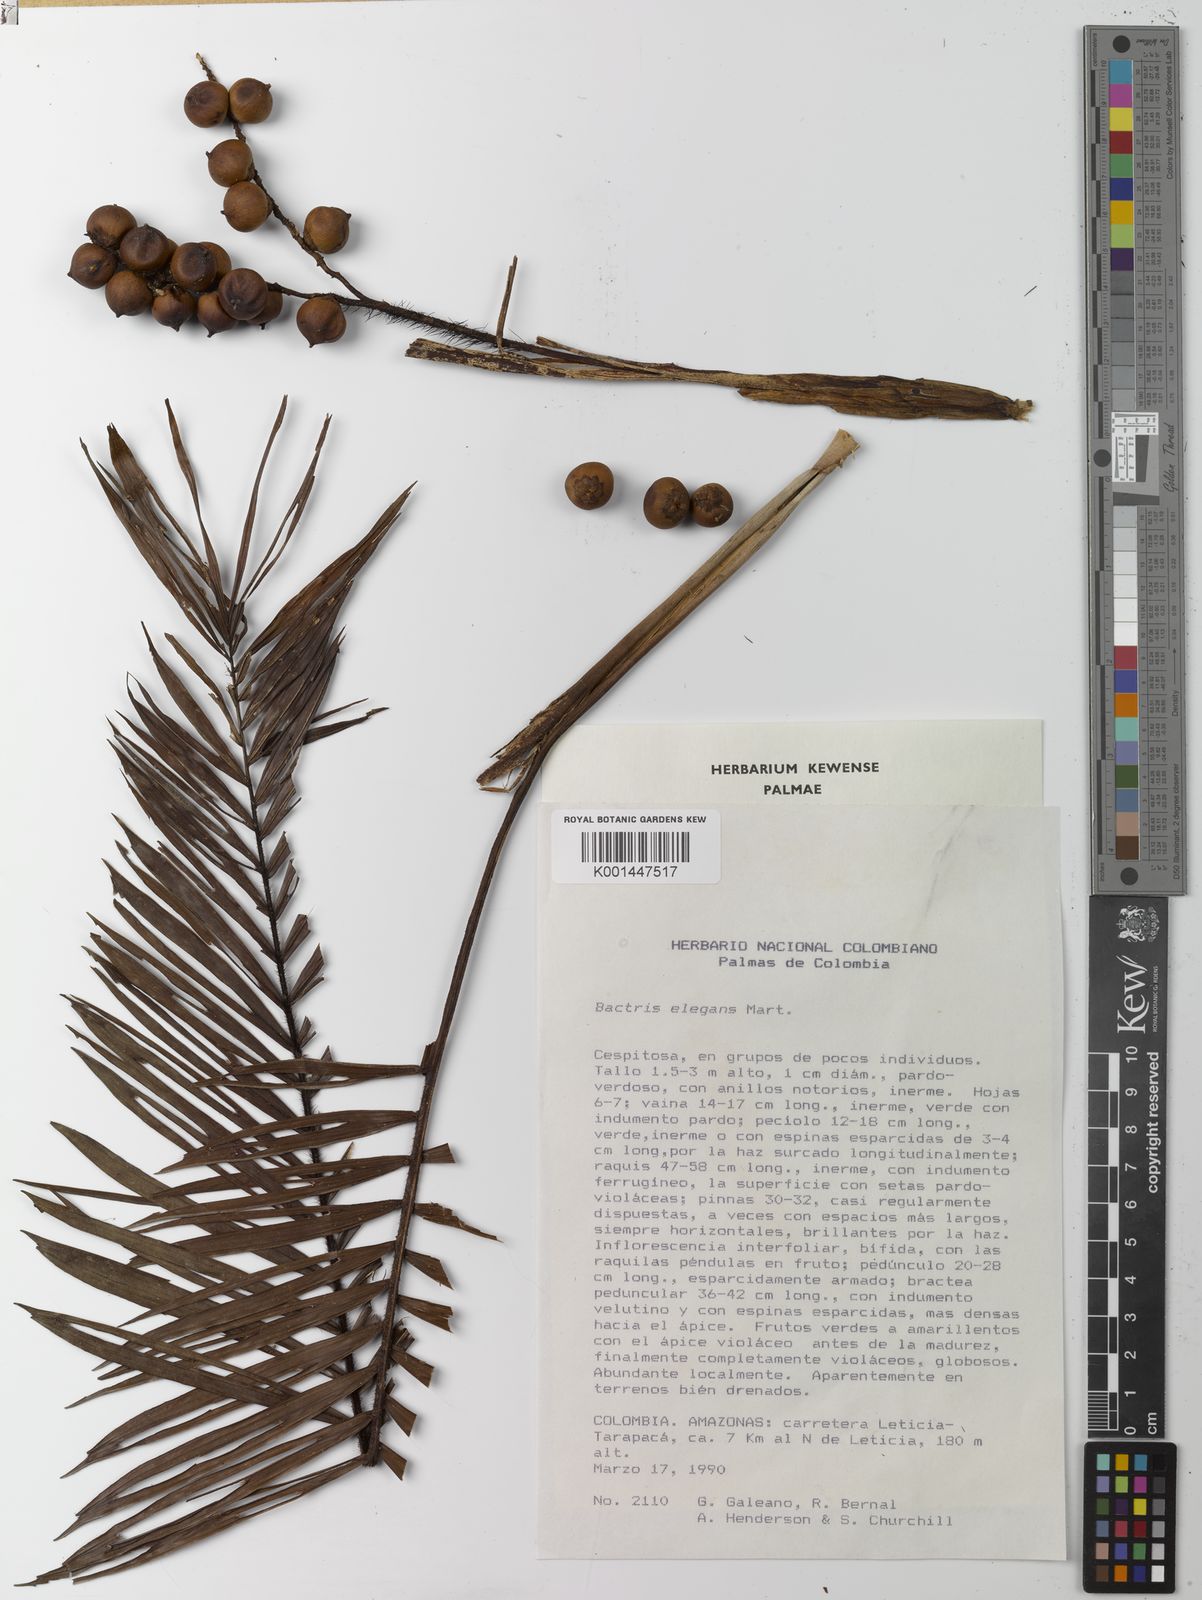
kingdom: Plantae
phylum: Tracheophyta
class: Liliopsida
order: Arecales
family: Arecaceae
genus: Bactris
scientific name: Bactris elegans
